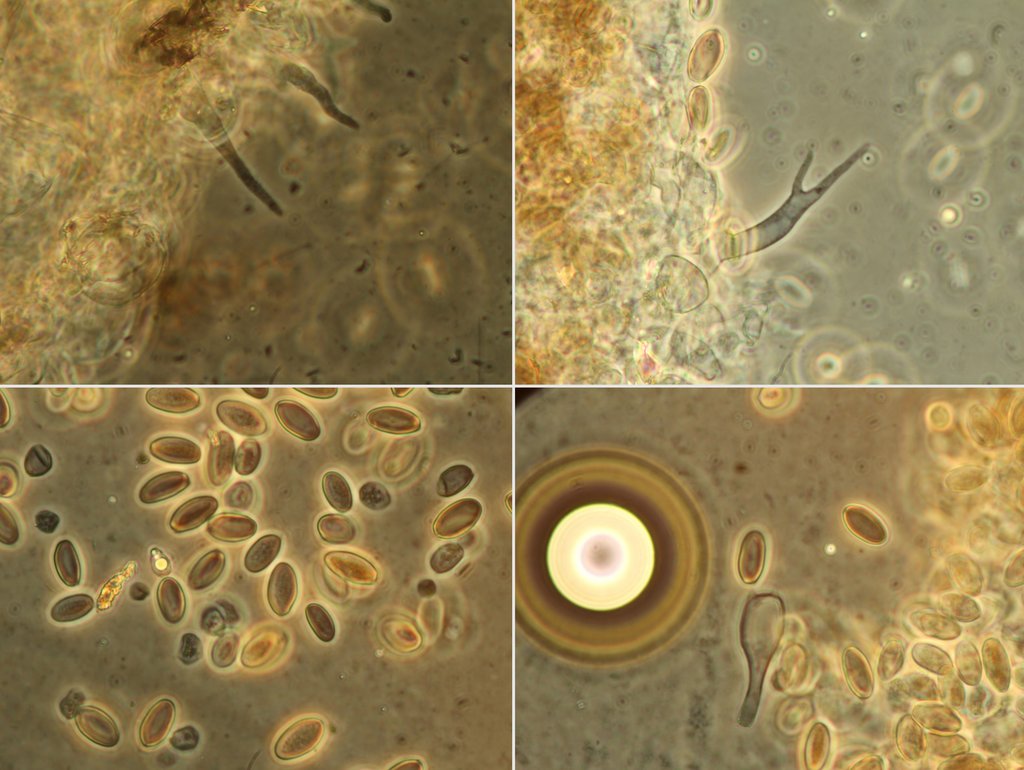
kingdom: Fungi
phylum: Basidiomycota
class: Agaricomycetes
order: Agaricales
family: Psathyrellaceae
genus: Coprinellus
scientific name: Coprinellus heptemerus
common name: hjorte-blækhat
